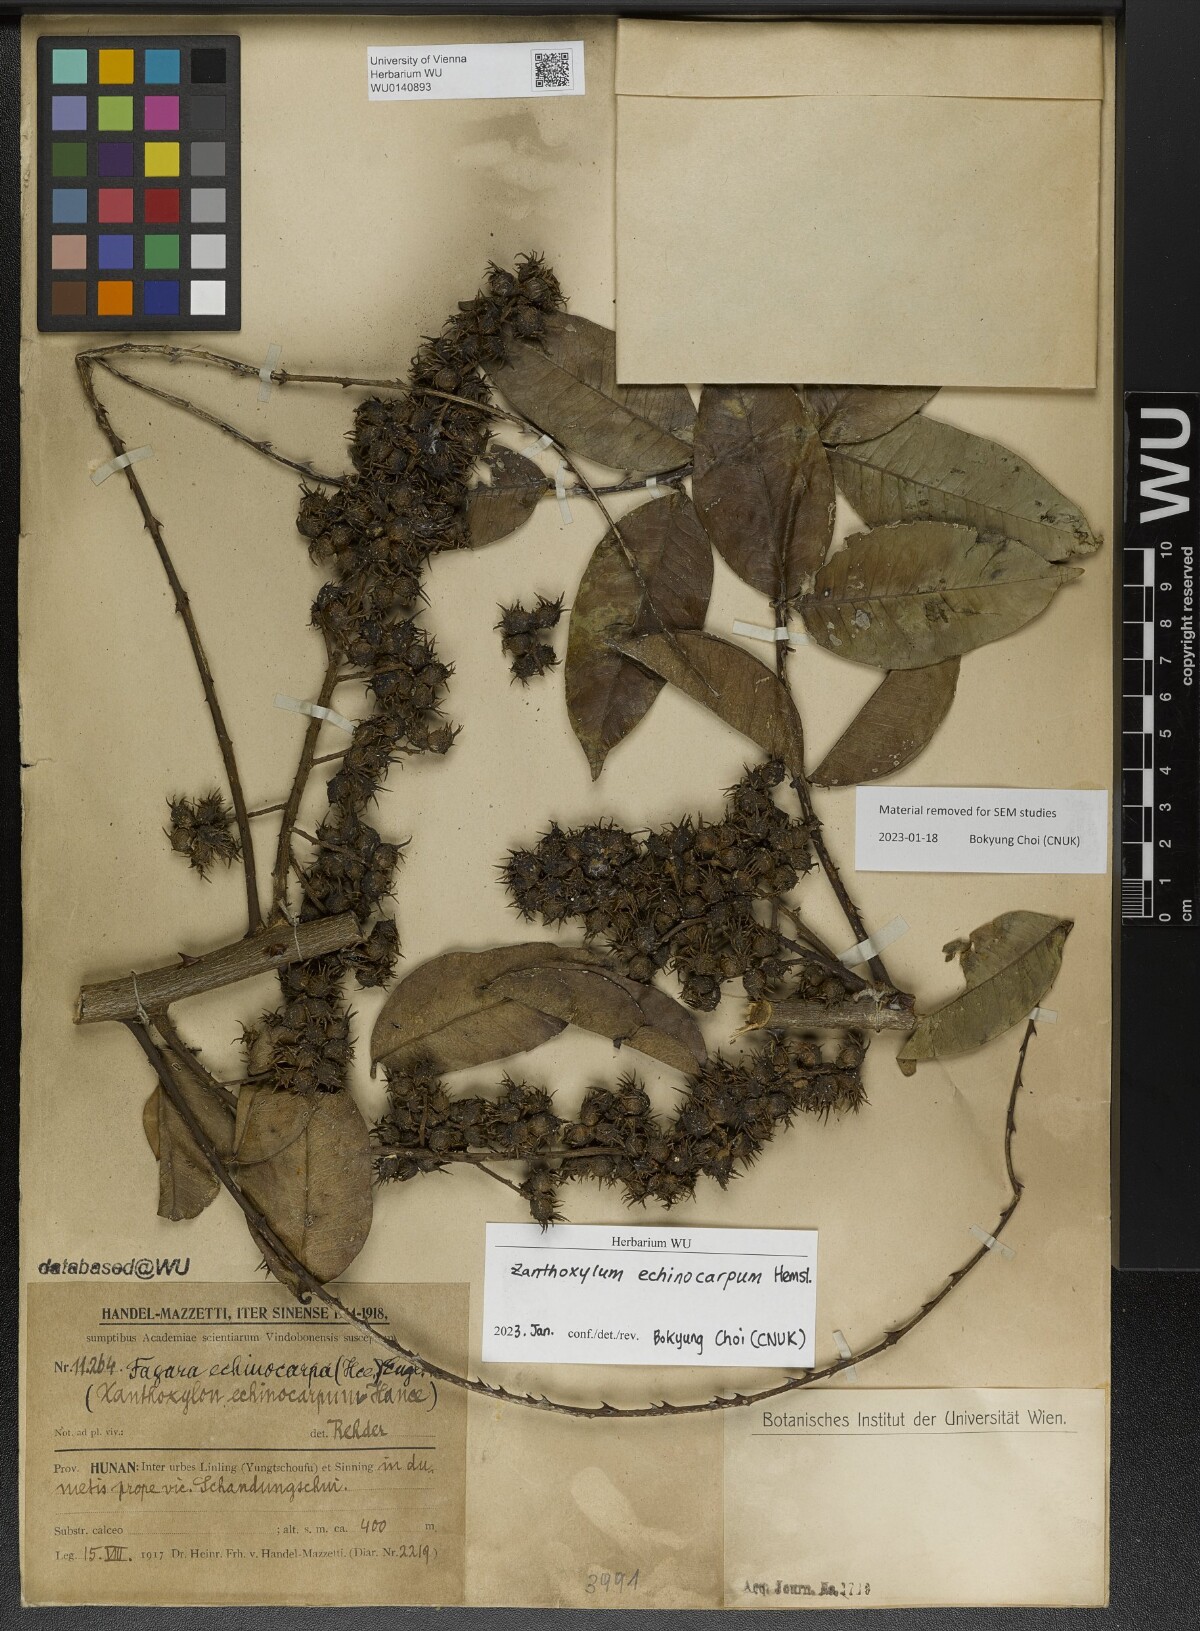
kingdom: Plantae
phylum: Tracheophyta
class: Magnoliopsida
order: Sapindales
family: Rutaceae
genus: Zanthoxylum
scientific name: Zanthoxylum echinocarpum
